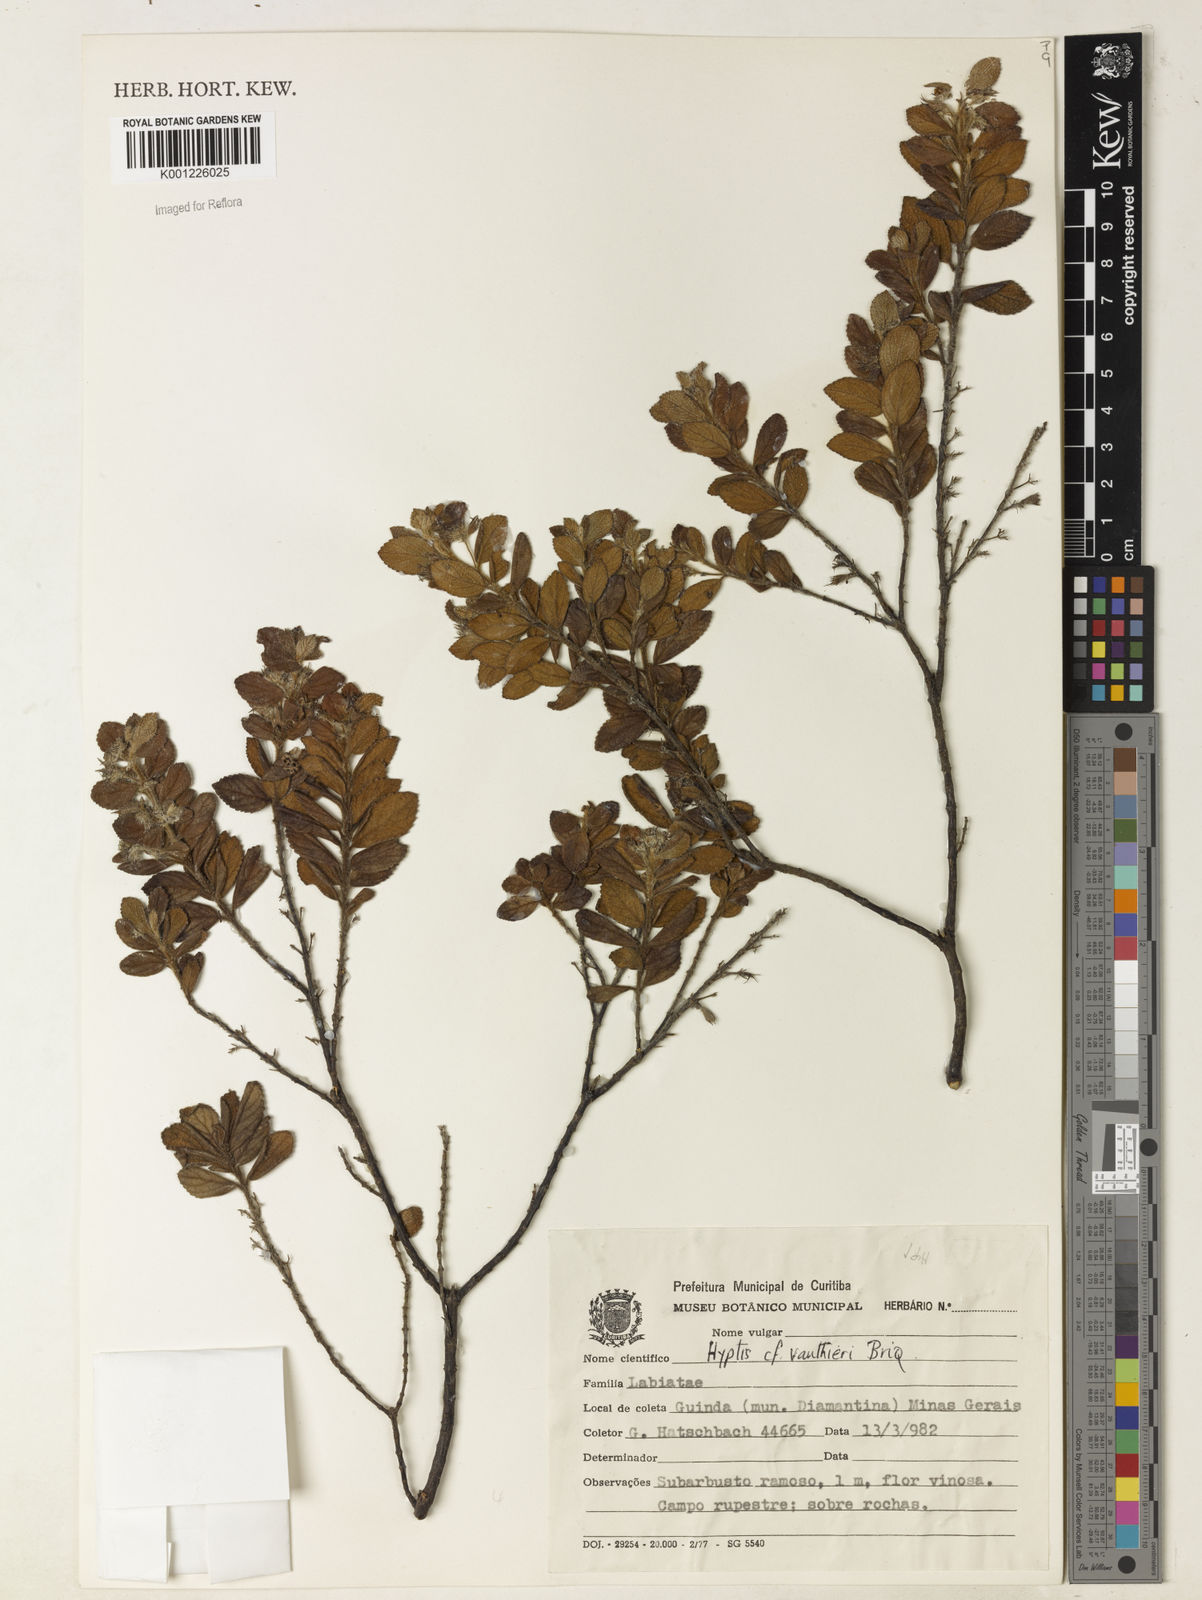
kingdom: Plantae
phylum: Tracheophyta
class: Magnoliopsida
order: Lamiales
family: Lamiaceae
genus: Hyptidendron
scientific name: Hyptidendron vauthieri
